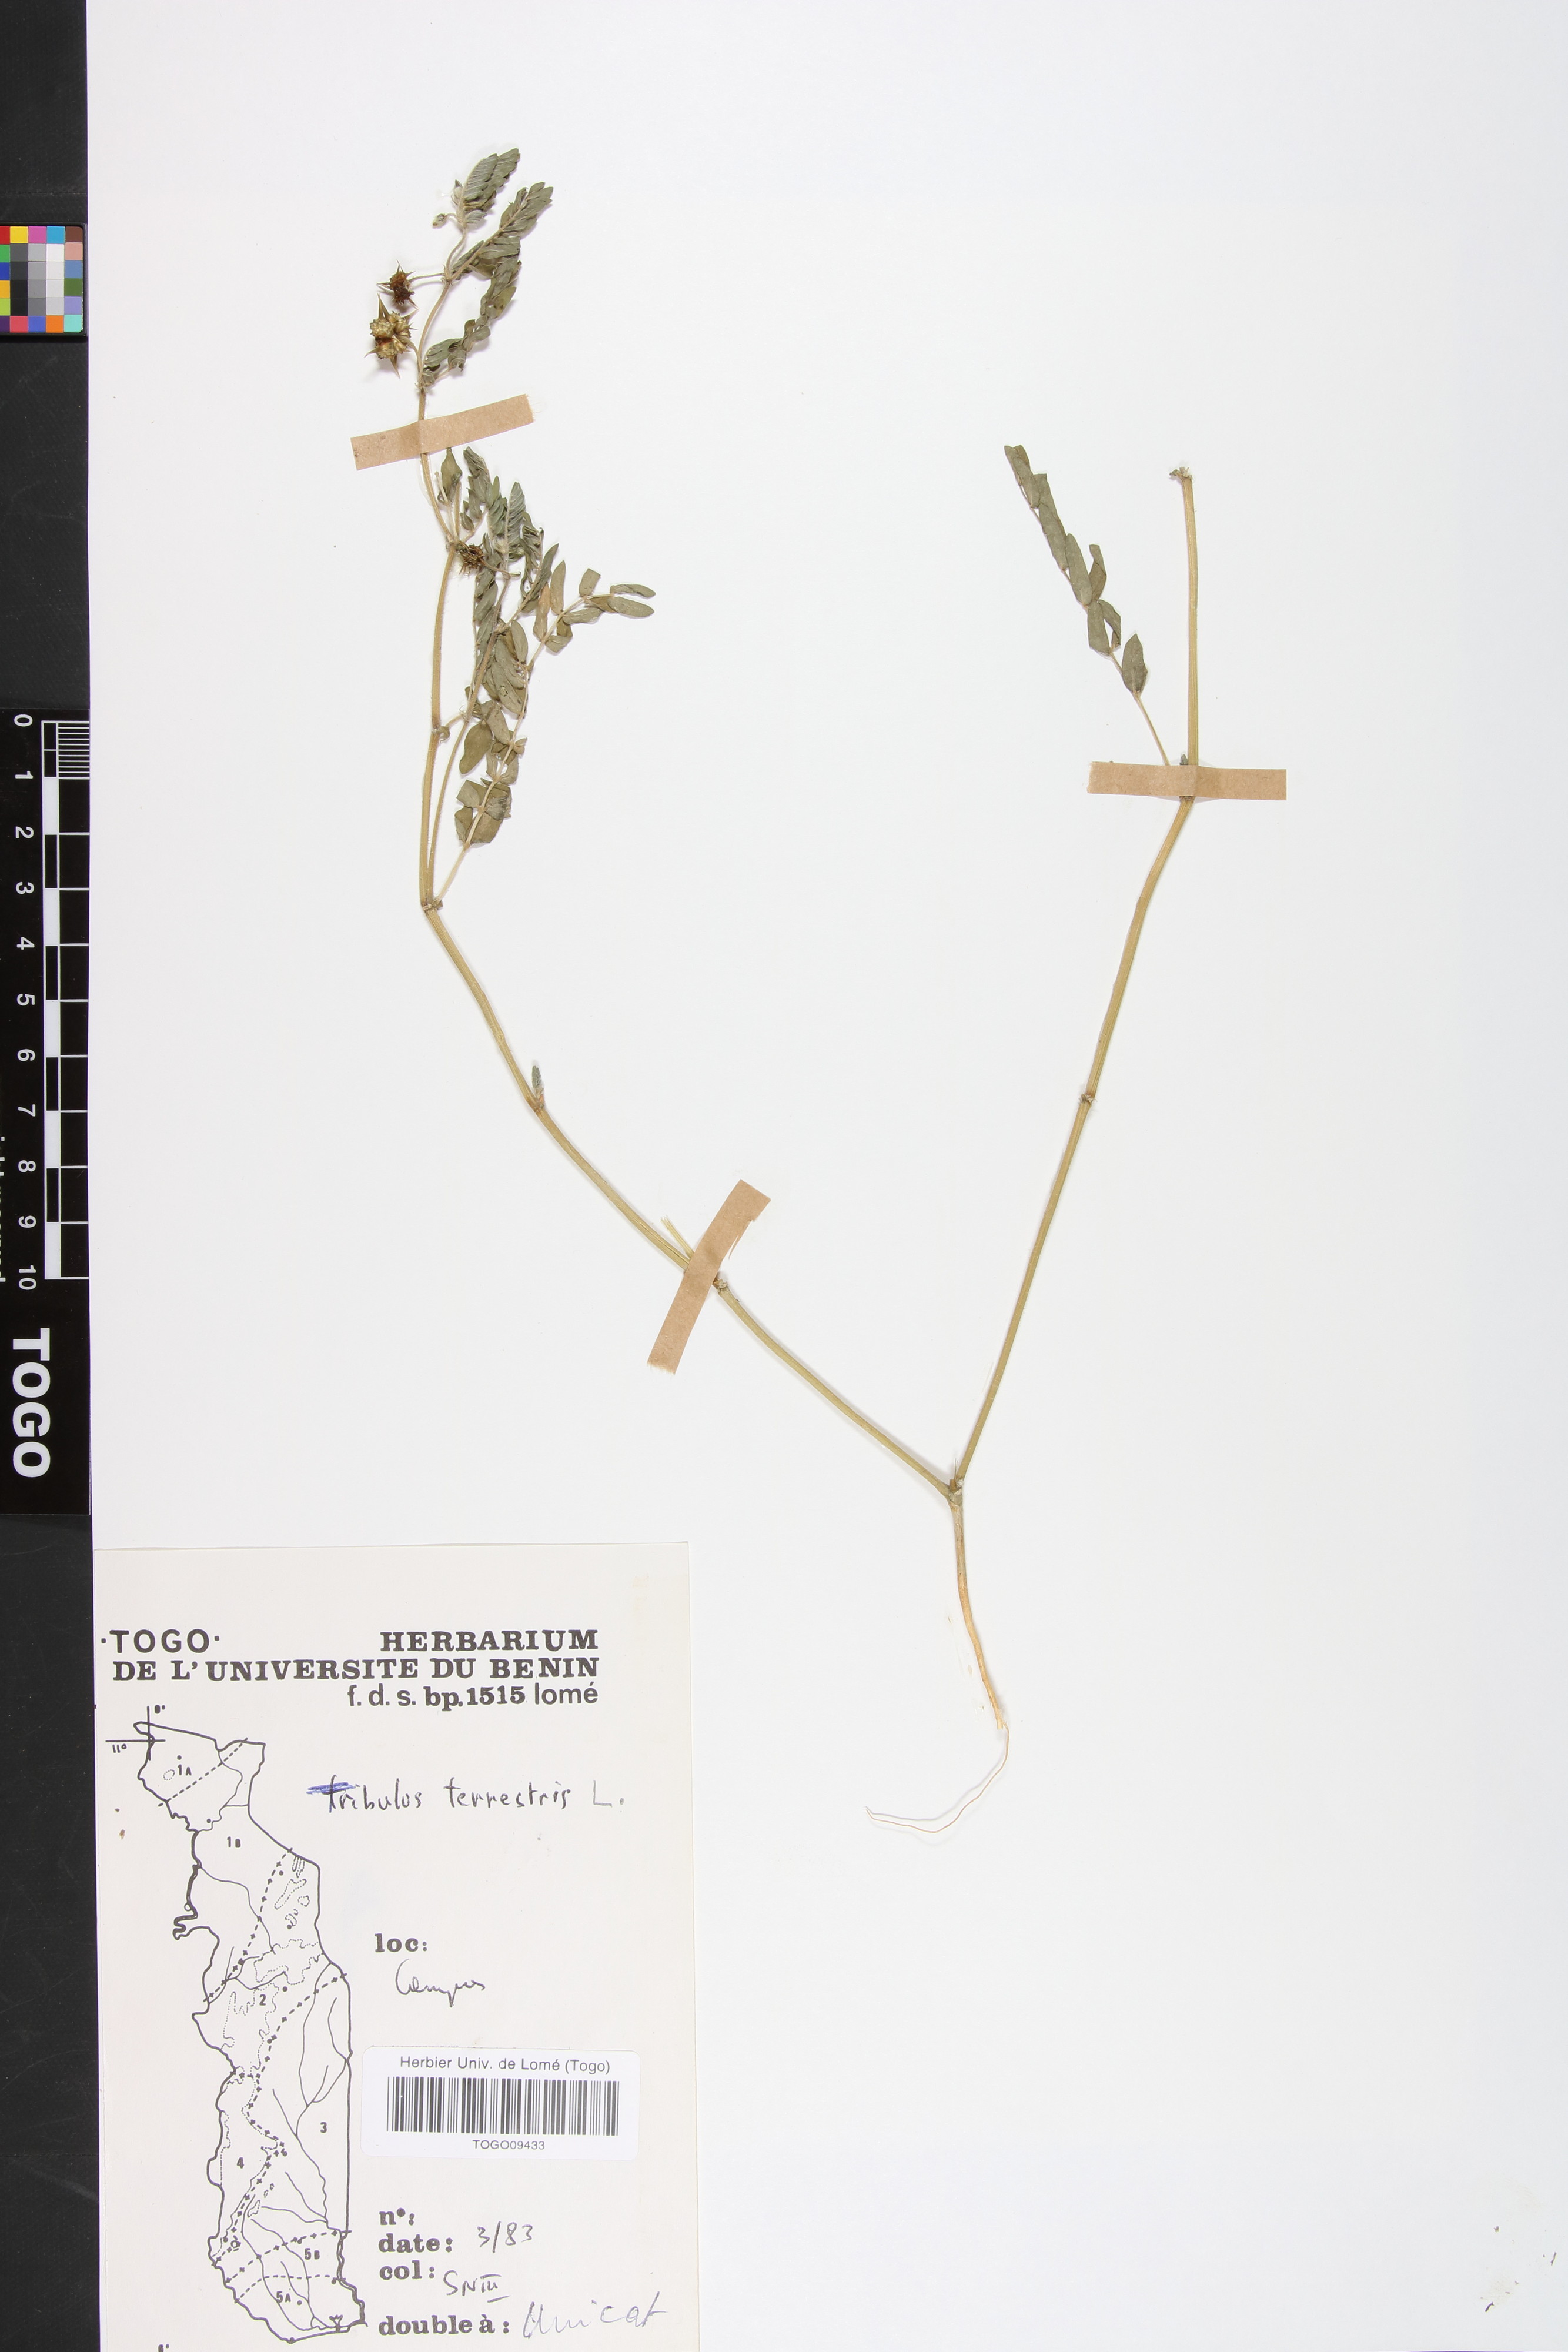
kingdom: Plantae
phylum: Tracheophyta
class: Magnoliopsida
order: Zygophyllales
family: Zygophyllaceae
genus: Tribulus
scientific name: Tribulus terrestris
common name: Puncturevine
